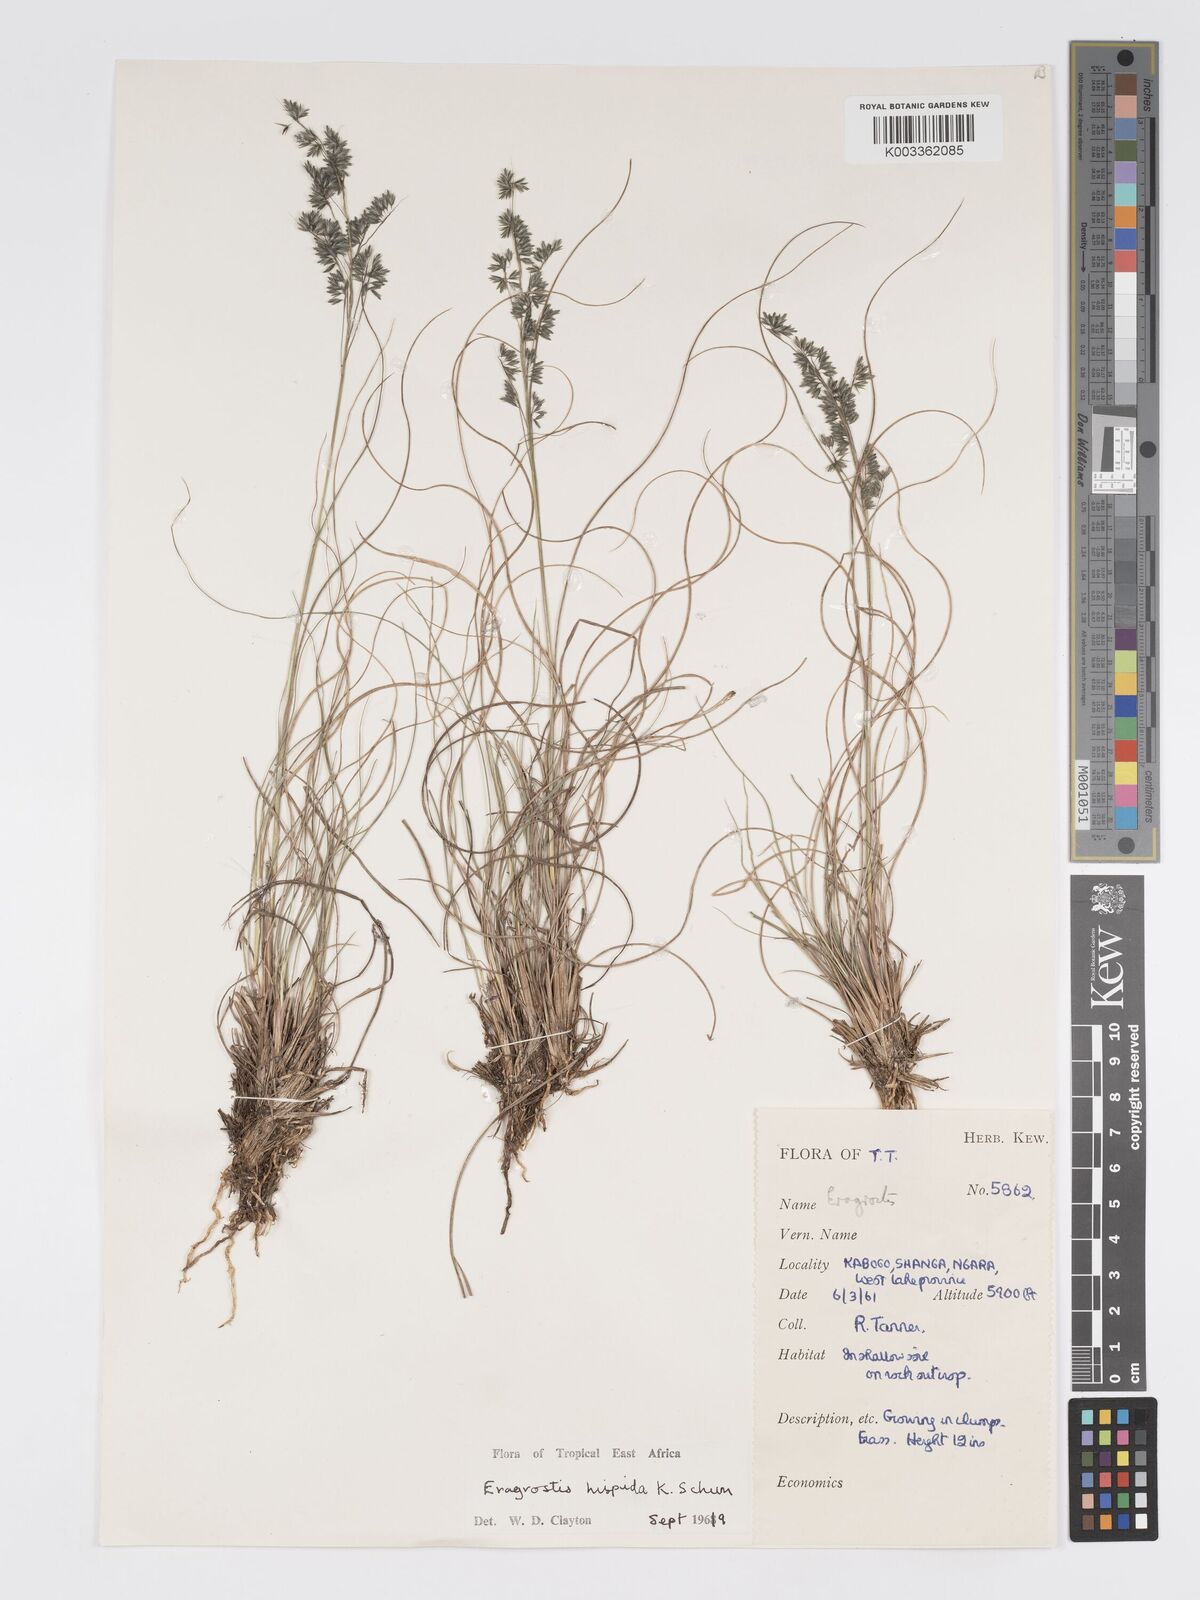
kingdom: Plantae
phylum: Tracheophyta
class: Liliopsida
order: Poales
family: Poaceae
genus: Eragrostis
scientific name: Eragrostis hispida
